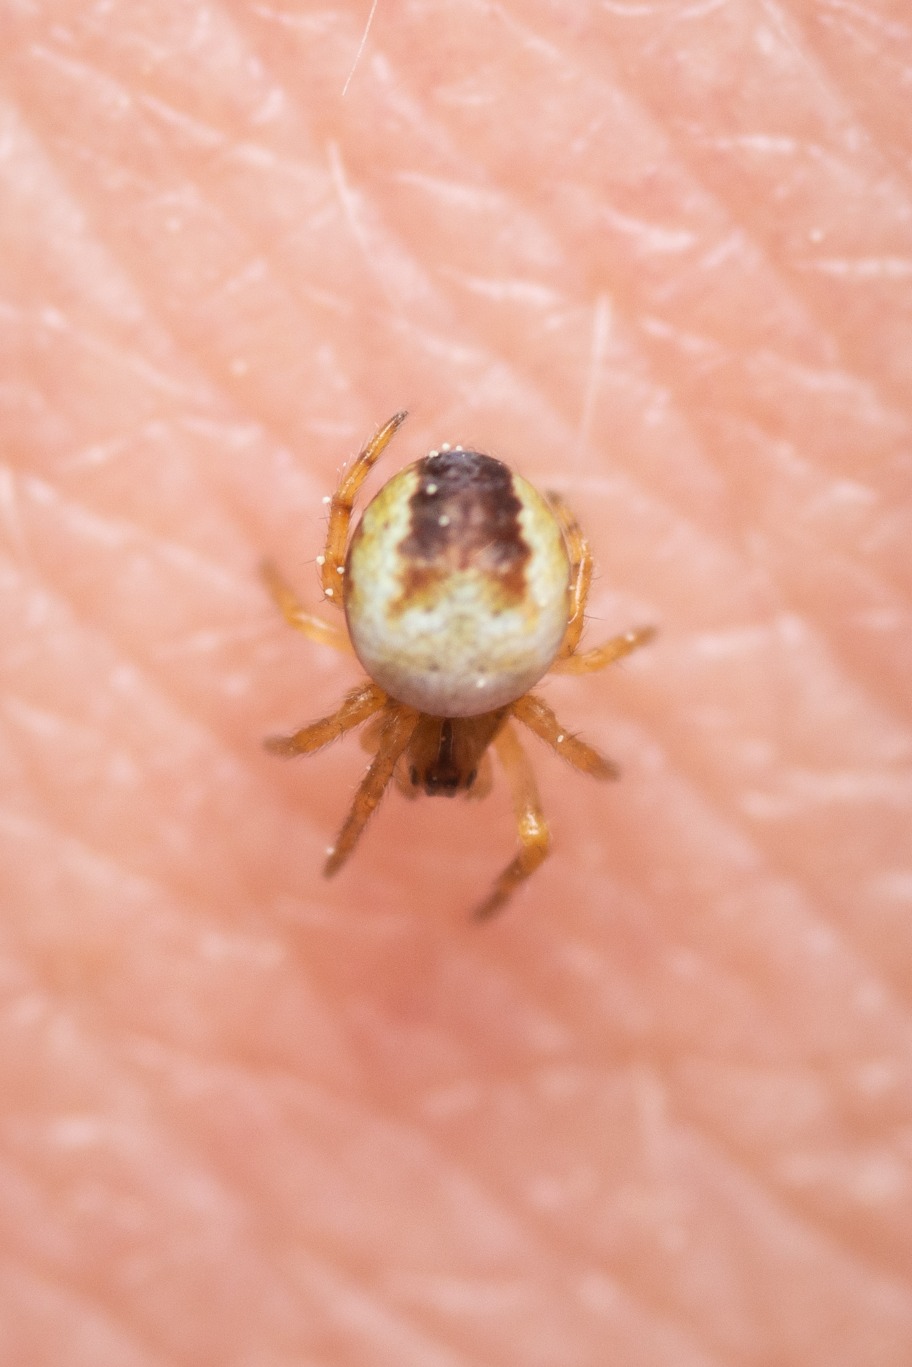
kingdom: Animalia
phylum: Arthropoda
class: Arachnida
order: Araneae
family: Araneidae
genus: Araneus
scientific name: Araneus quadratus
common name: Kvadratedderkop
